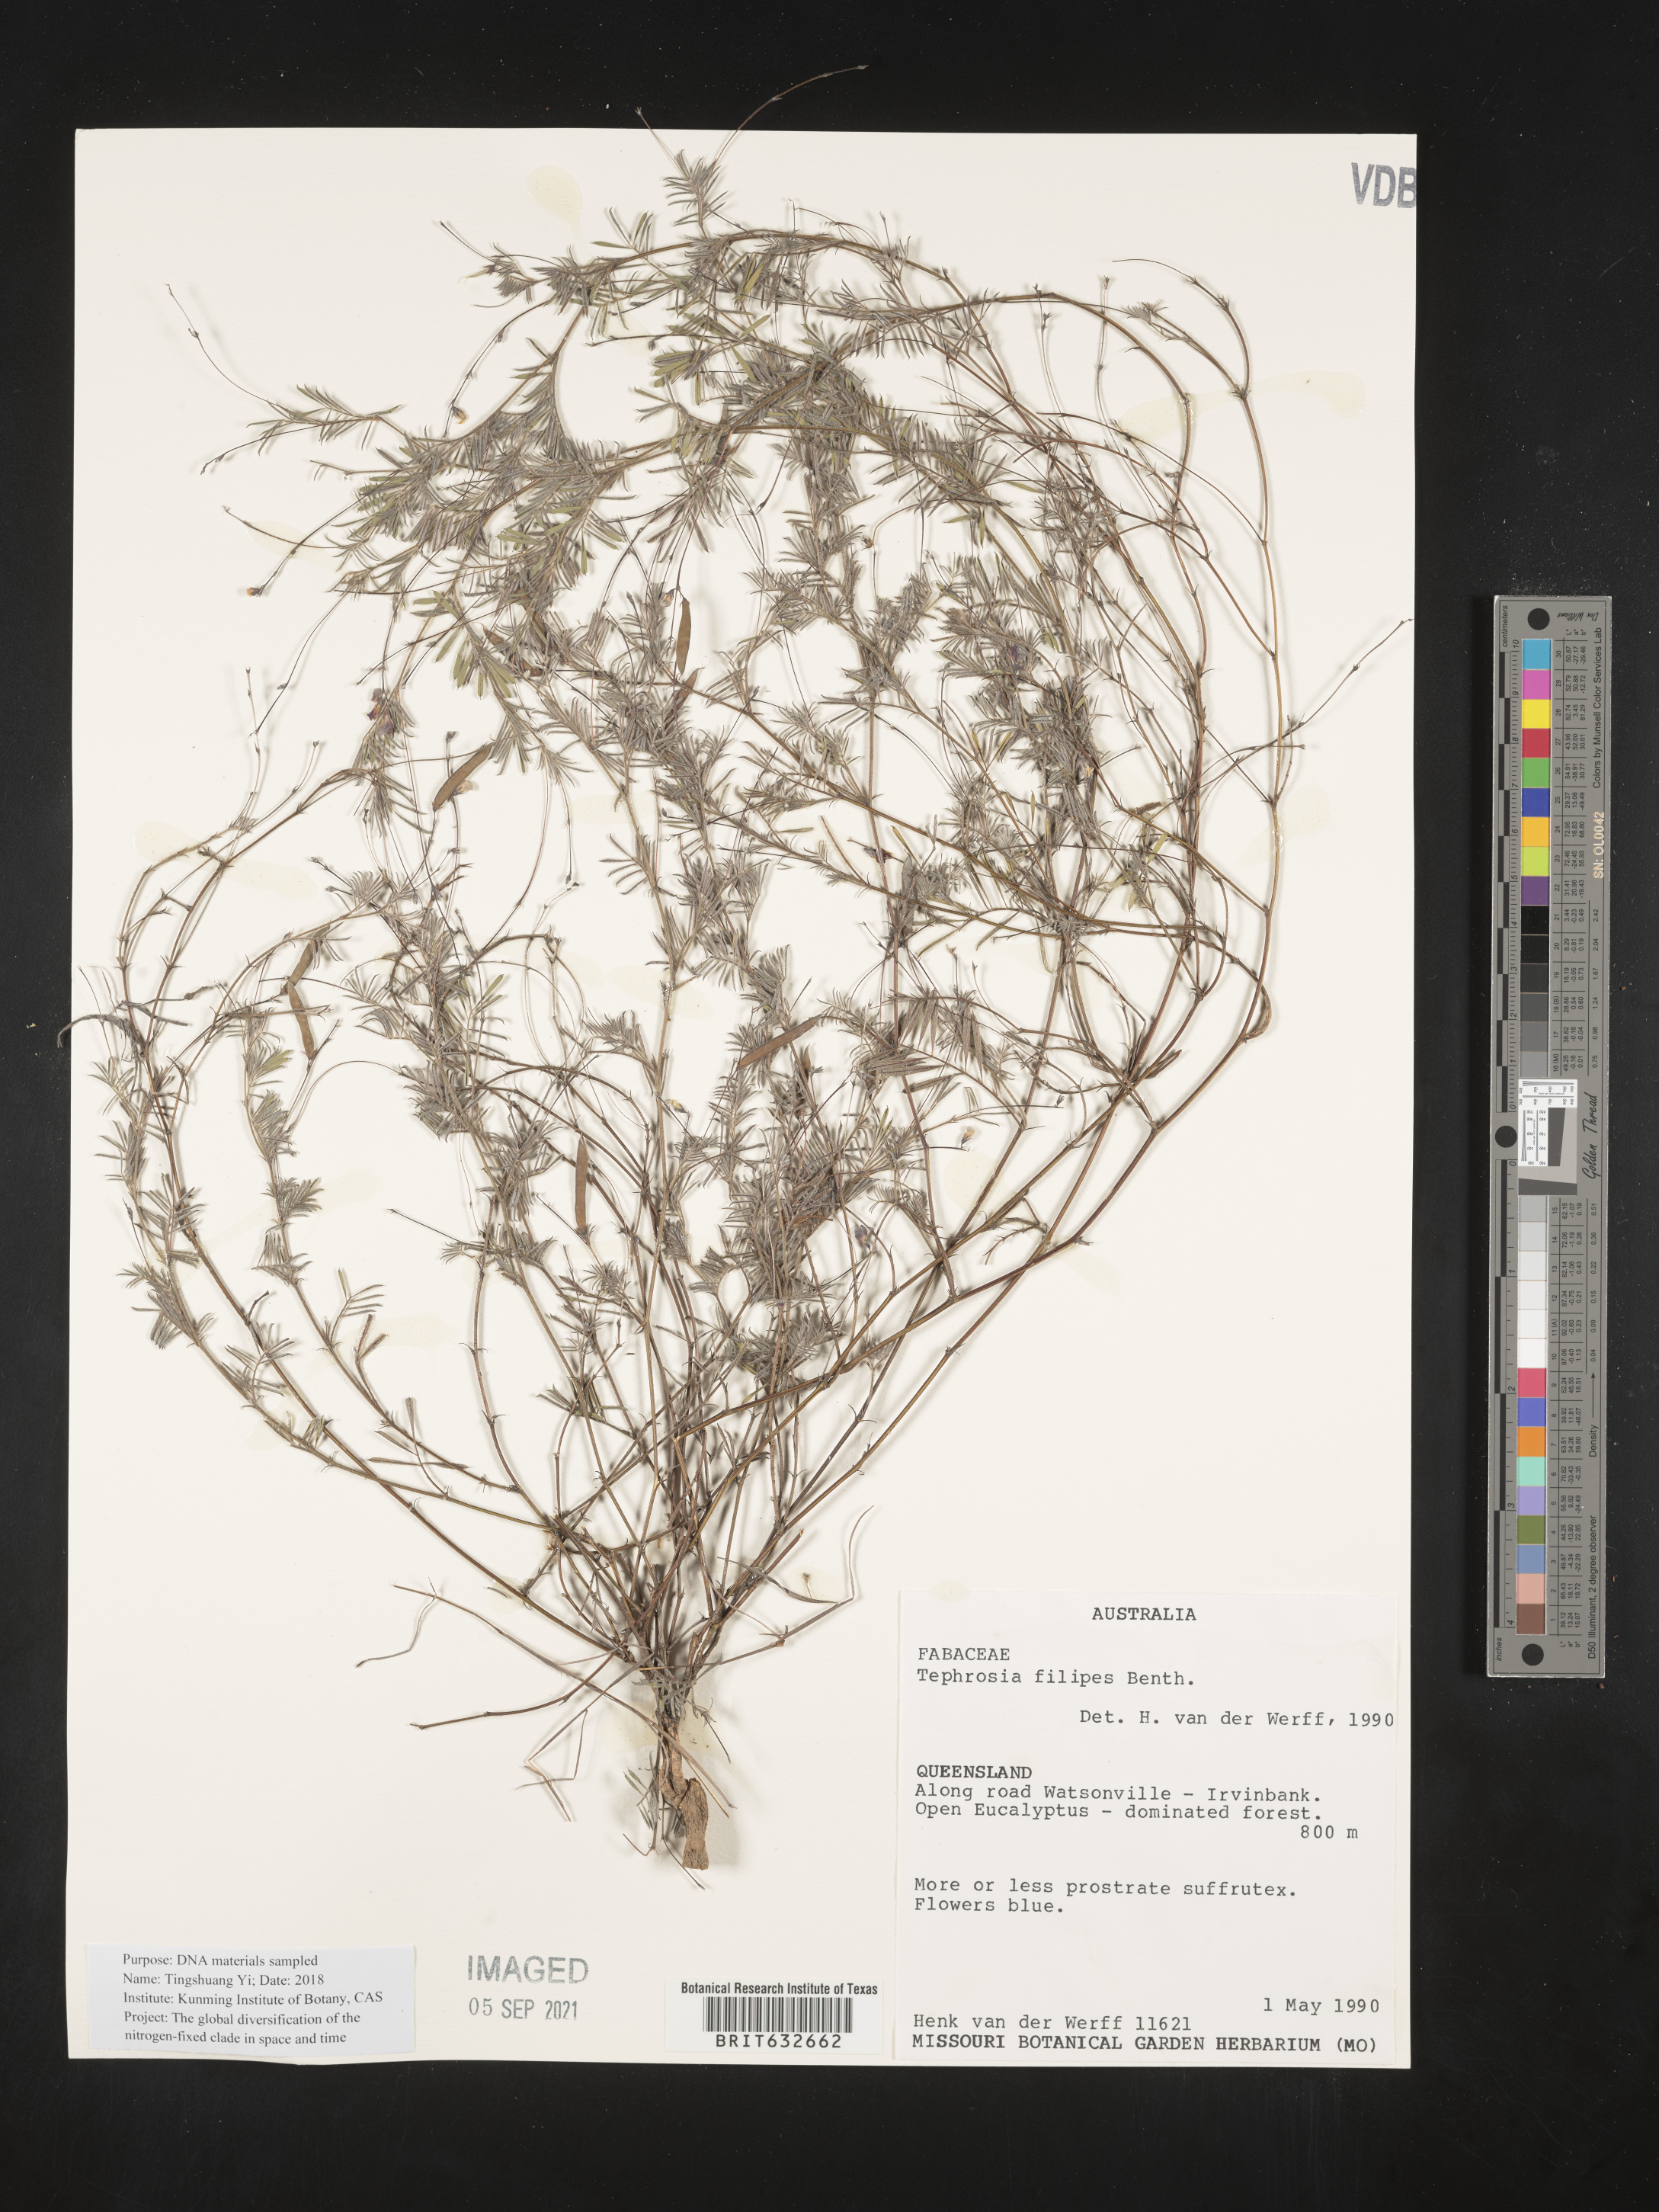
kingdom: Plantae
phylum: Tracheophyta
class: Magnoliopsida
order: Fabales
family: Fabaceae
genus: Tephrosia
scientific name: Tephrosia
